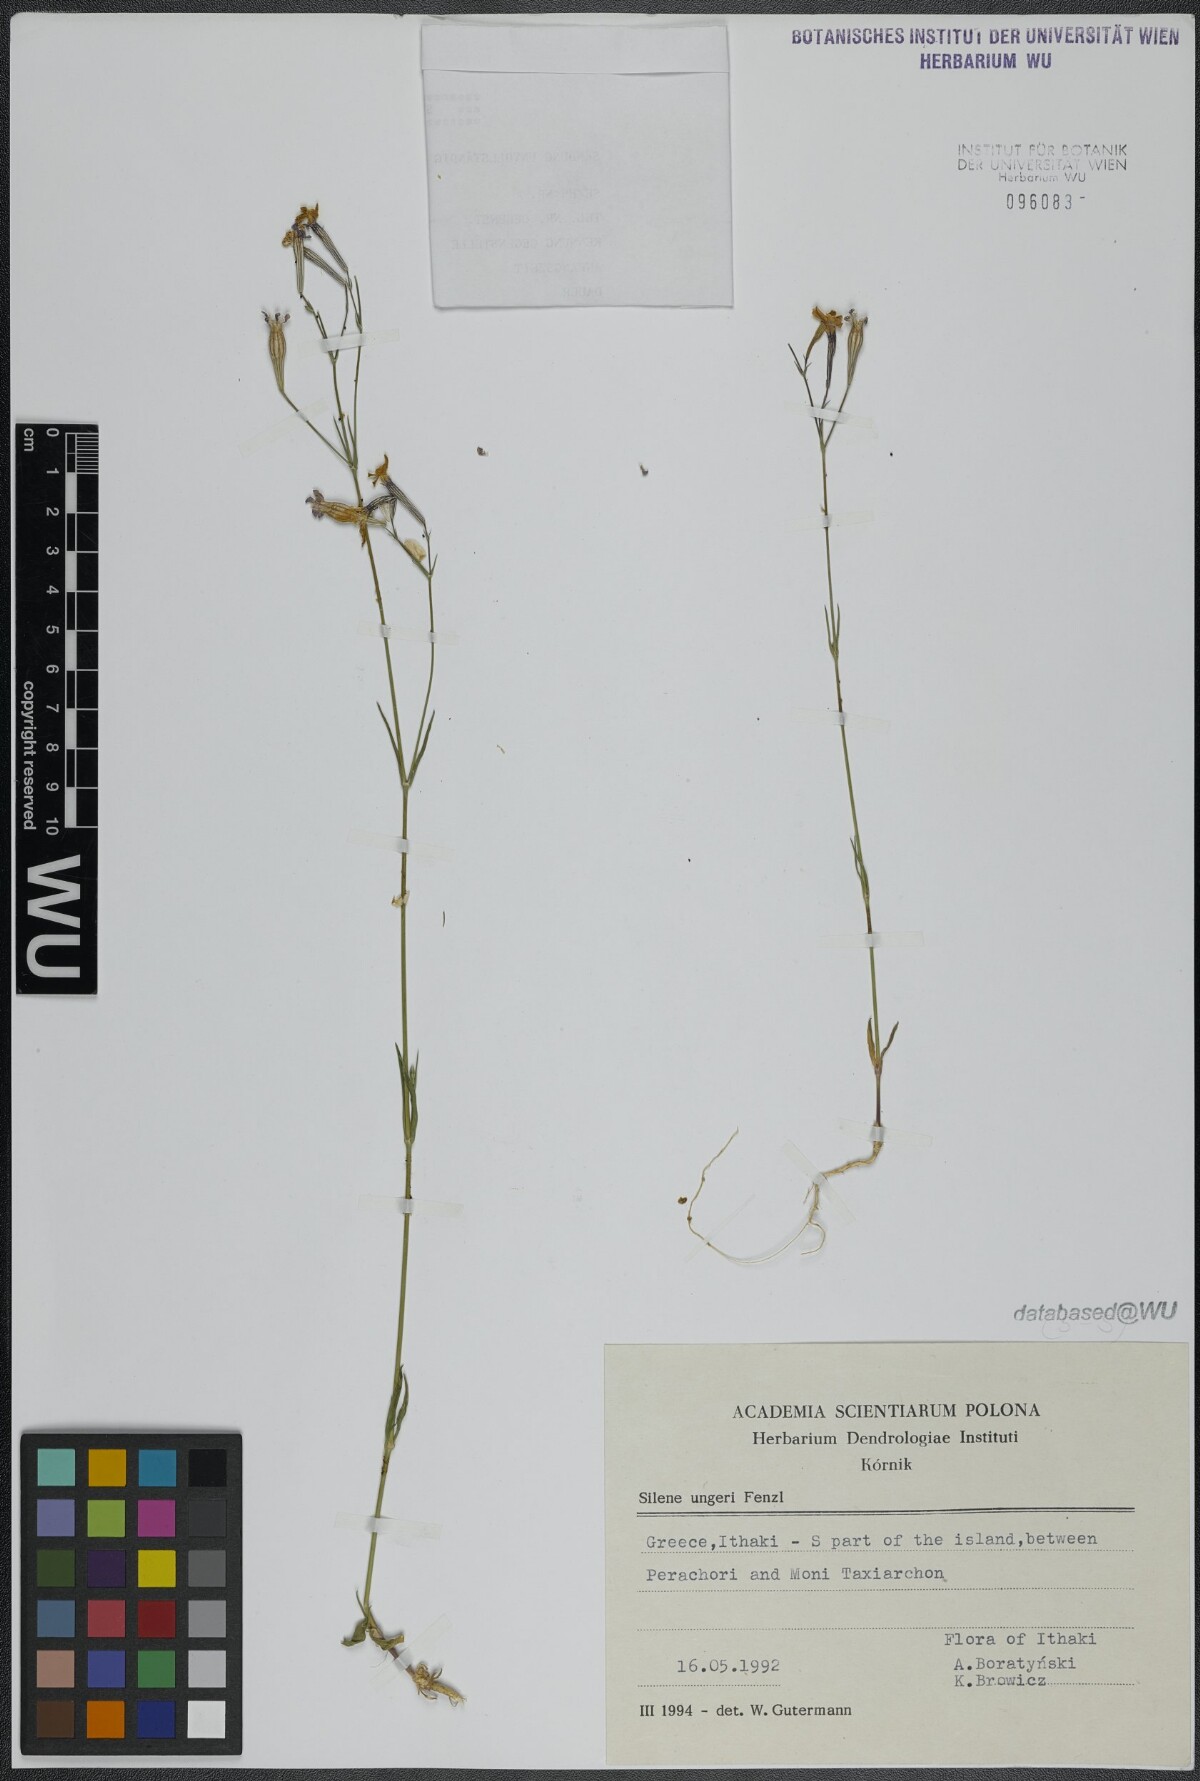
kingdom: Plantae
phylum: Tracheophyta
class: Magnoliopsida
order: Caryophyllales
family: Caryophyllaceae
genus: Silene
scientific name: Silene ungeri
